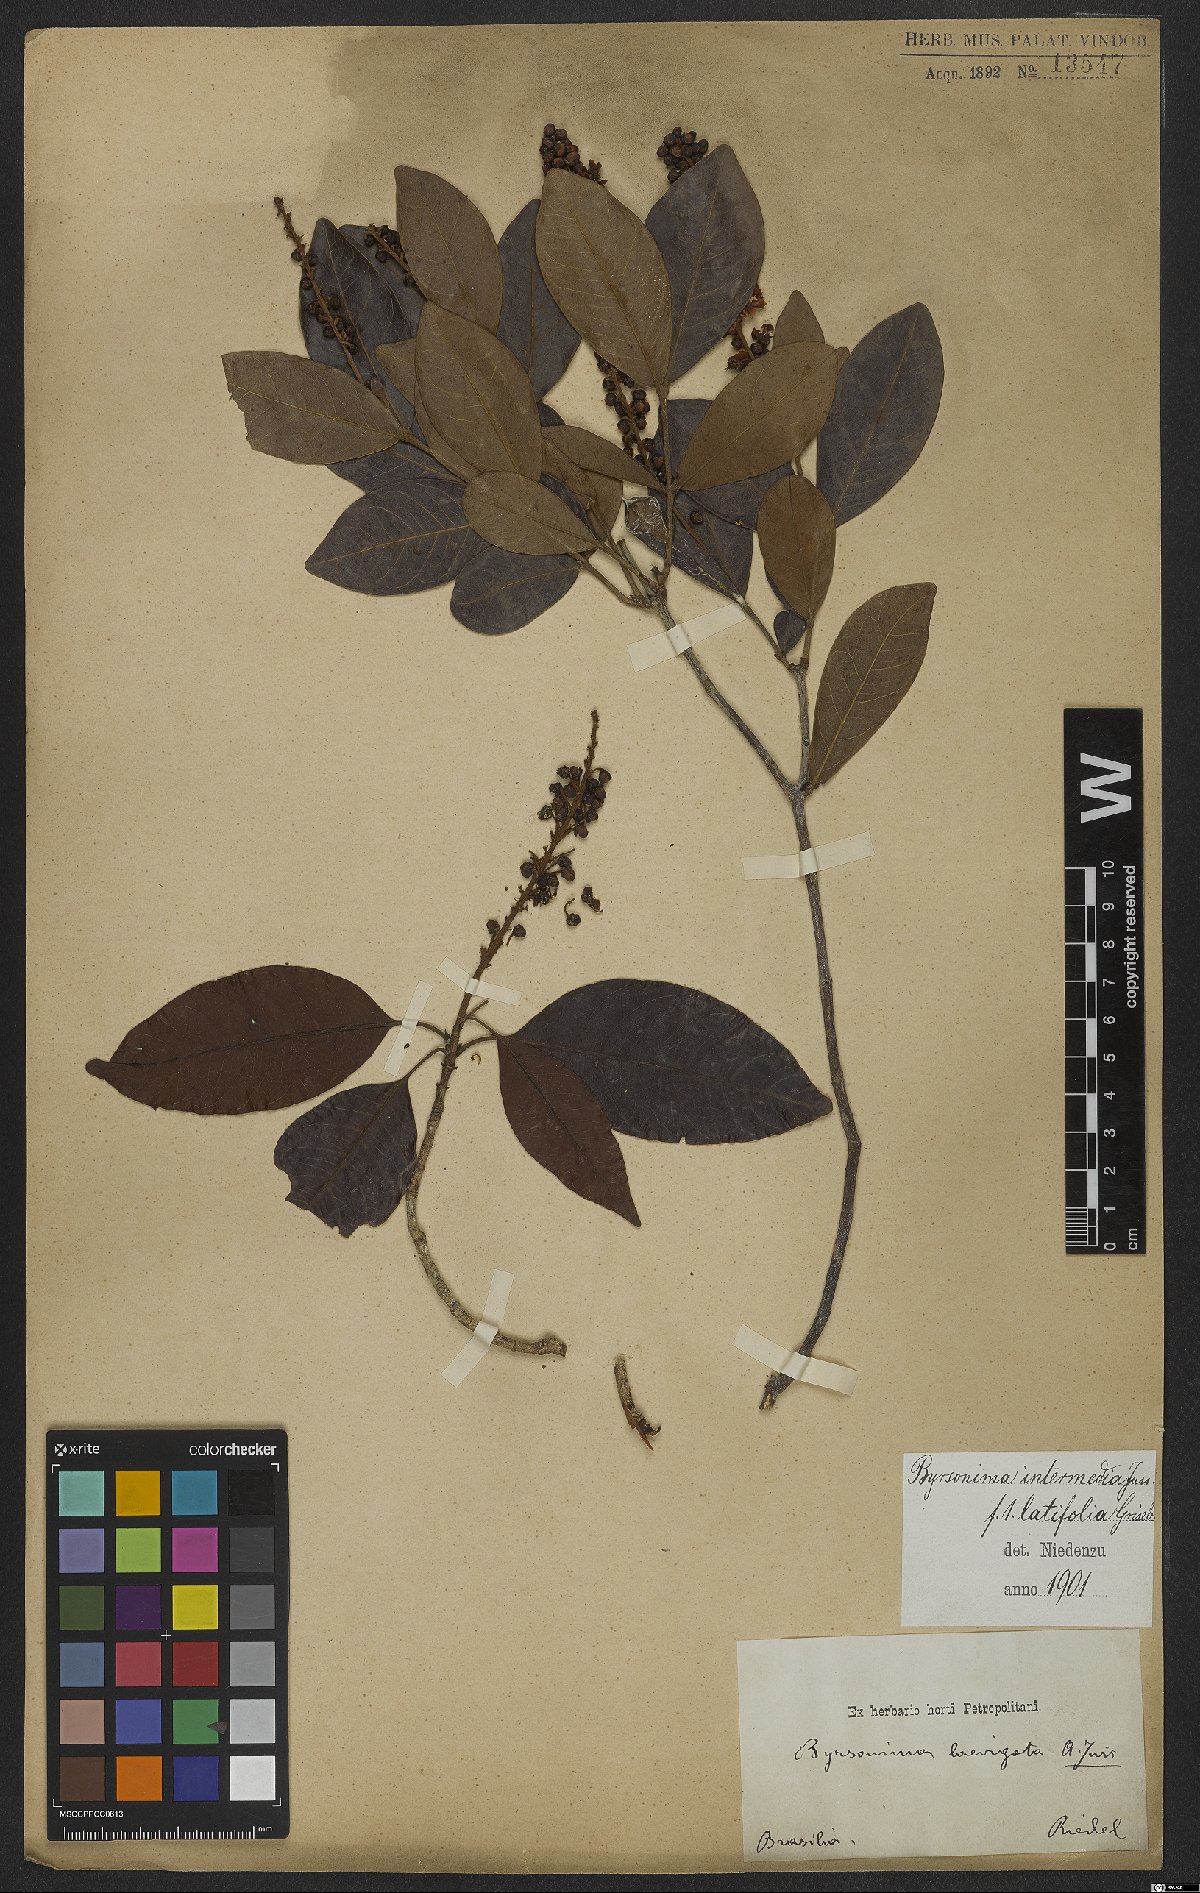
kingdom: Plantae
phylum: Tracheophyta
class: Magnoliopsida
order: Malpighiales
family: Malpighiaceae
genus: Byrsonima
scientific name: Byrsonima intermedia
